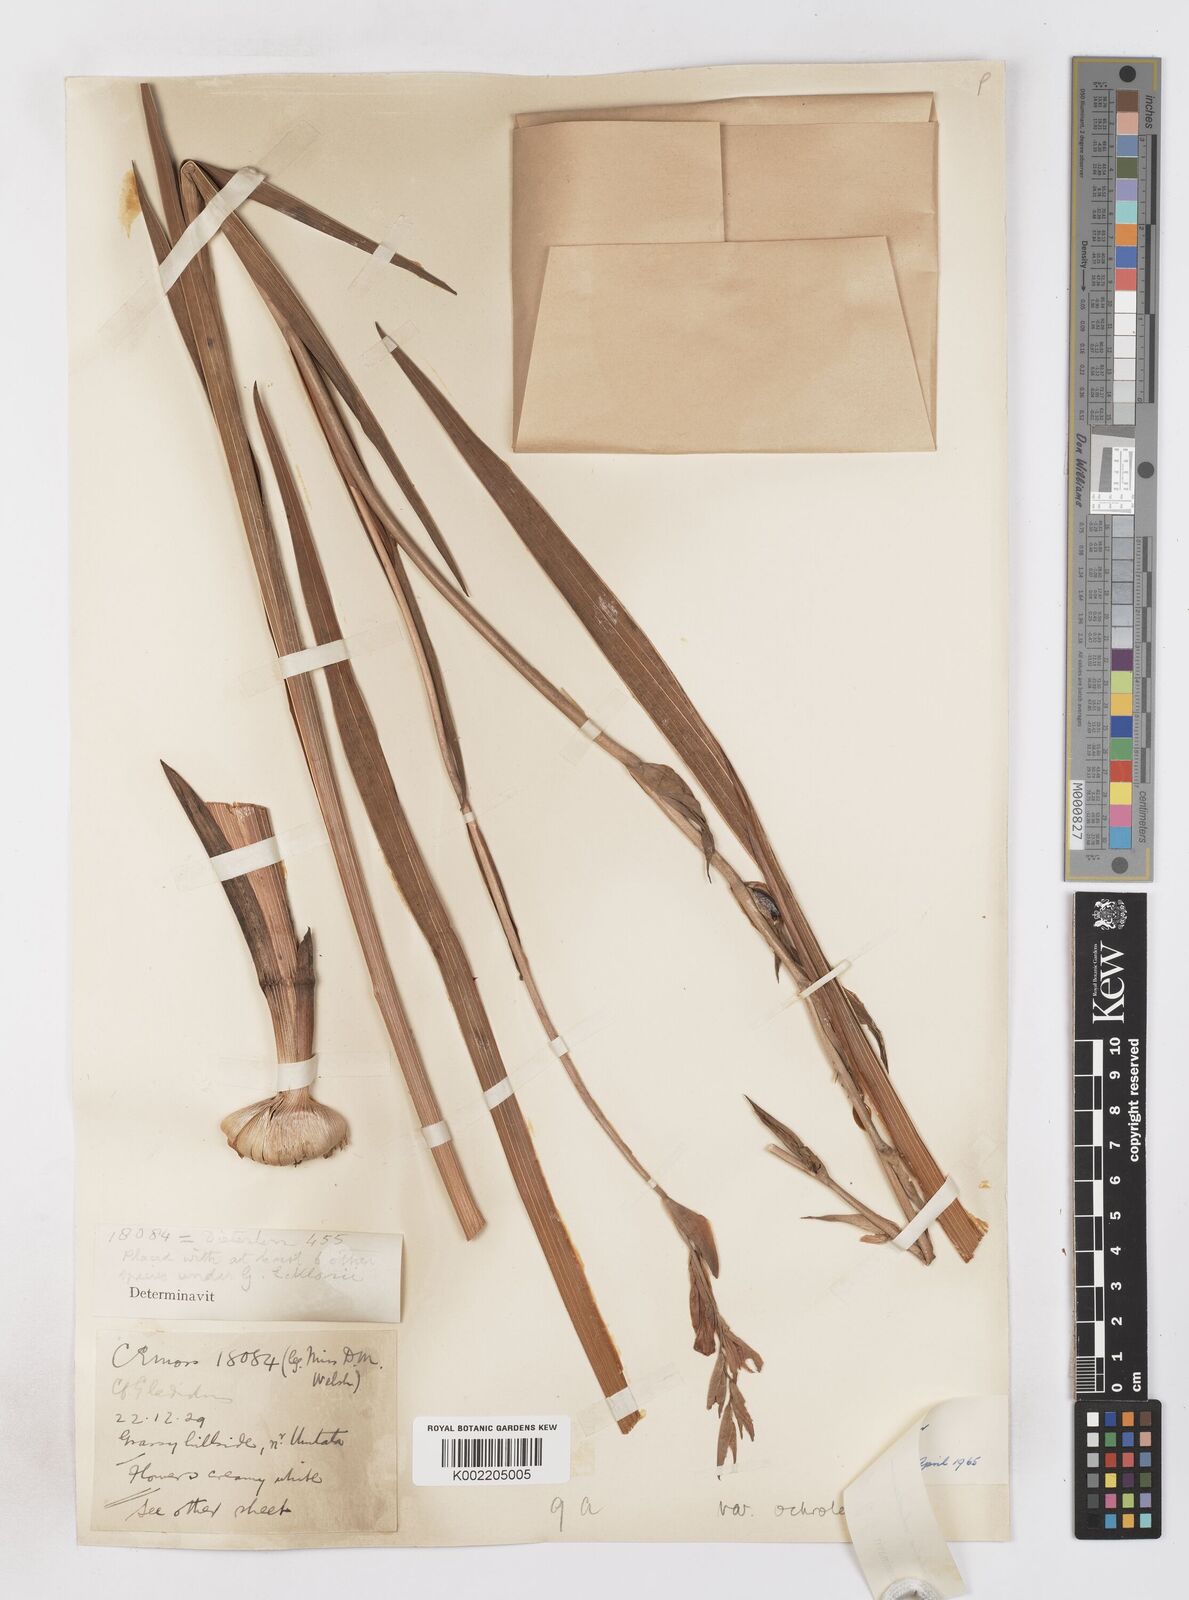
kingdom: Plantae
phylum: Tracheophyta
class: Liliopsida
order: Asparagales
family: Iridaceae
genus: Gladiolus
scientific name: Gladiolus ochroleucus
